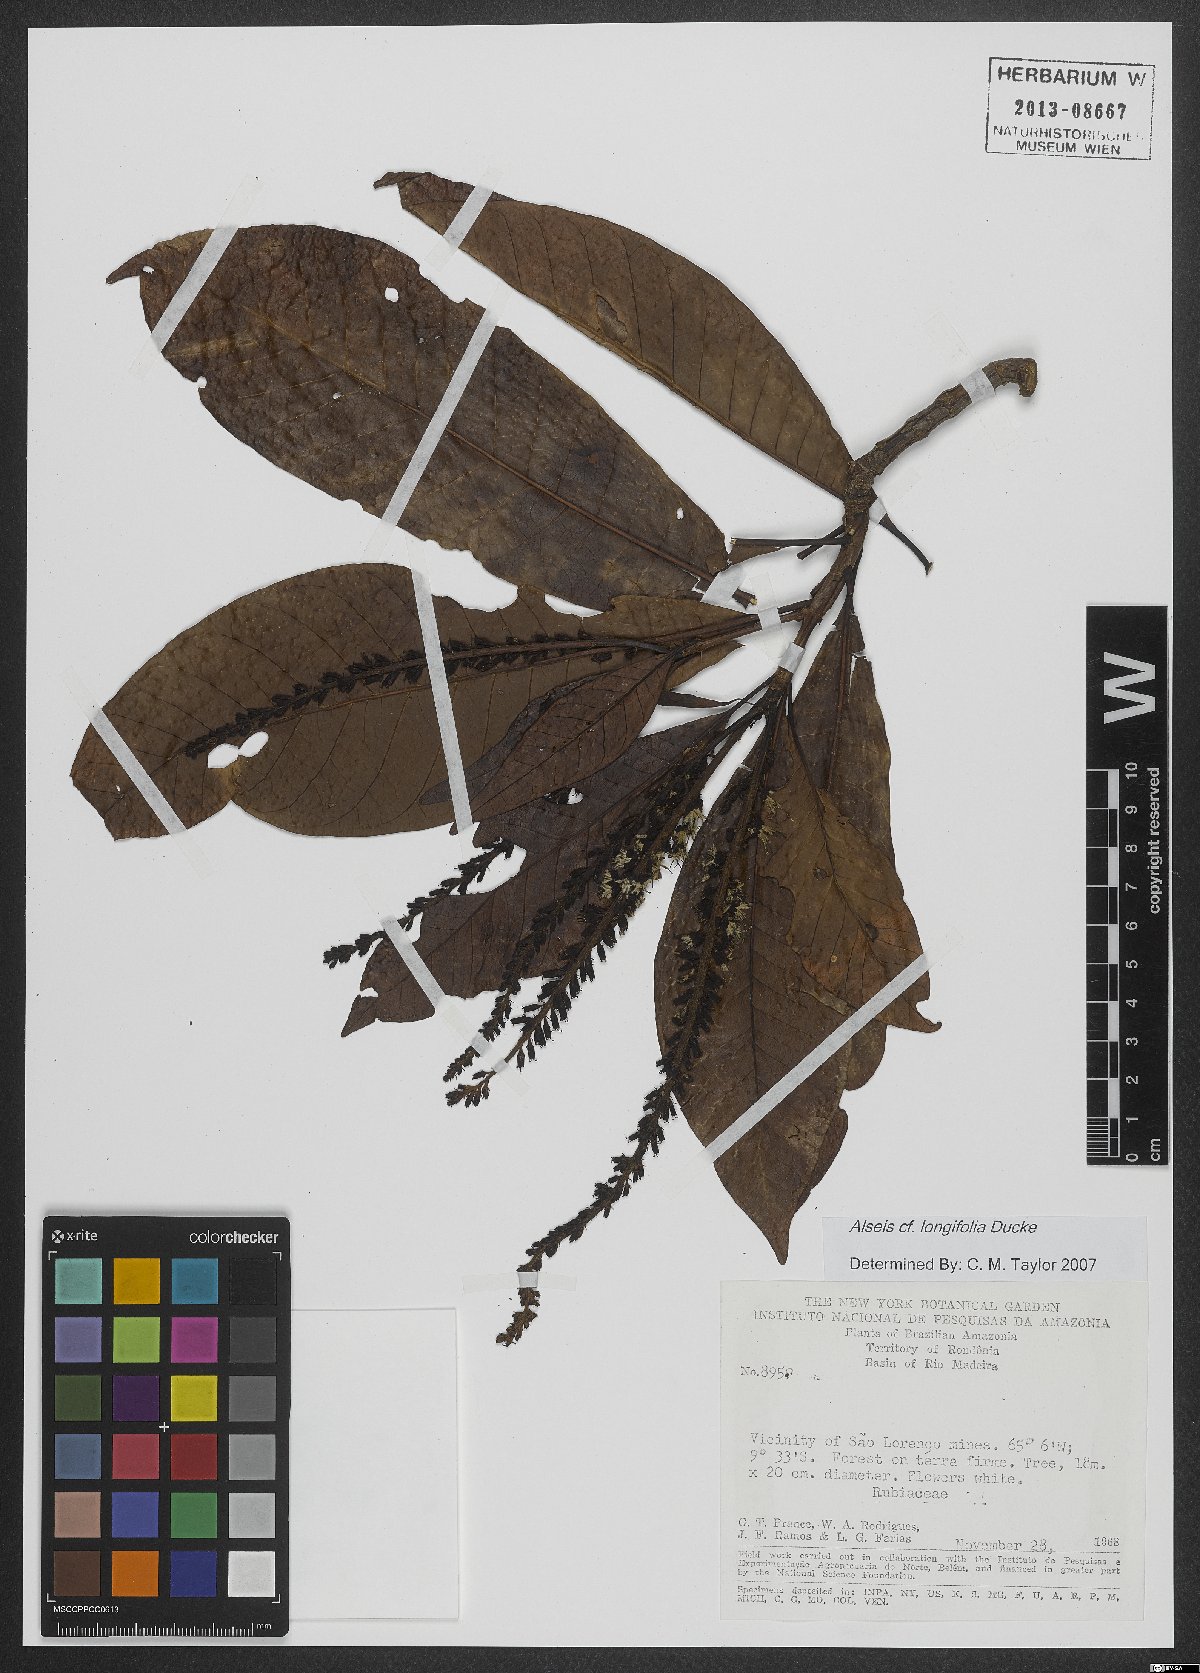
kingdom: Plantae
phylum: Tracheophyta
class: Magnoliopsida
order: Gentianales
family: Rubiaceae
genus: Alseis
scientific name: Alseis longifolia
